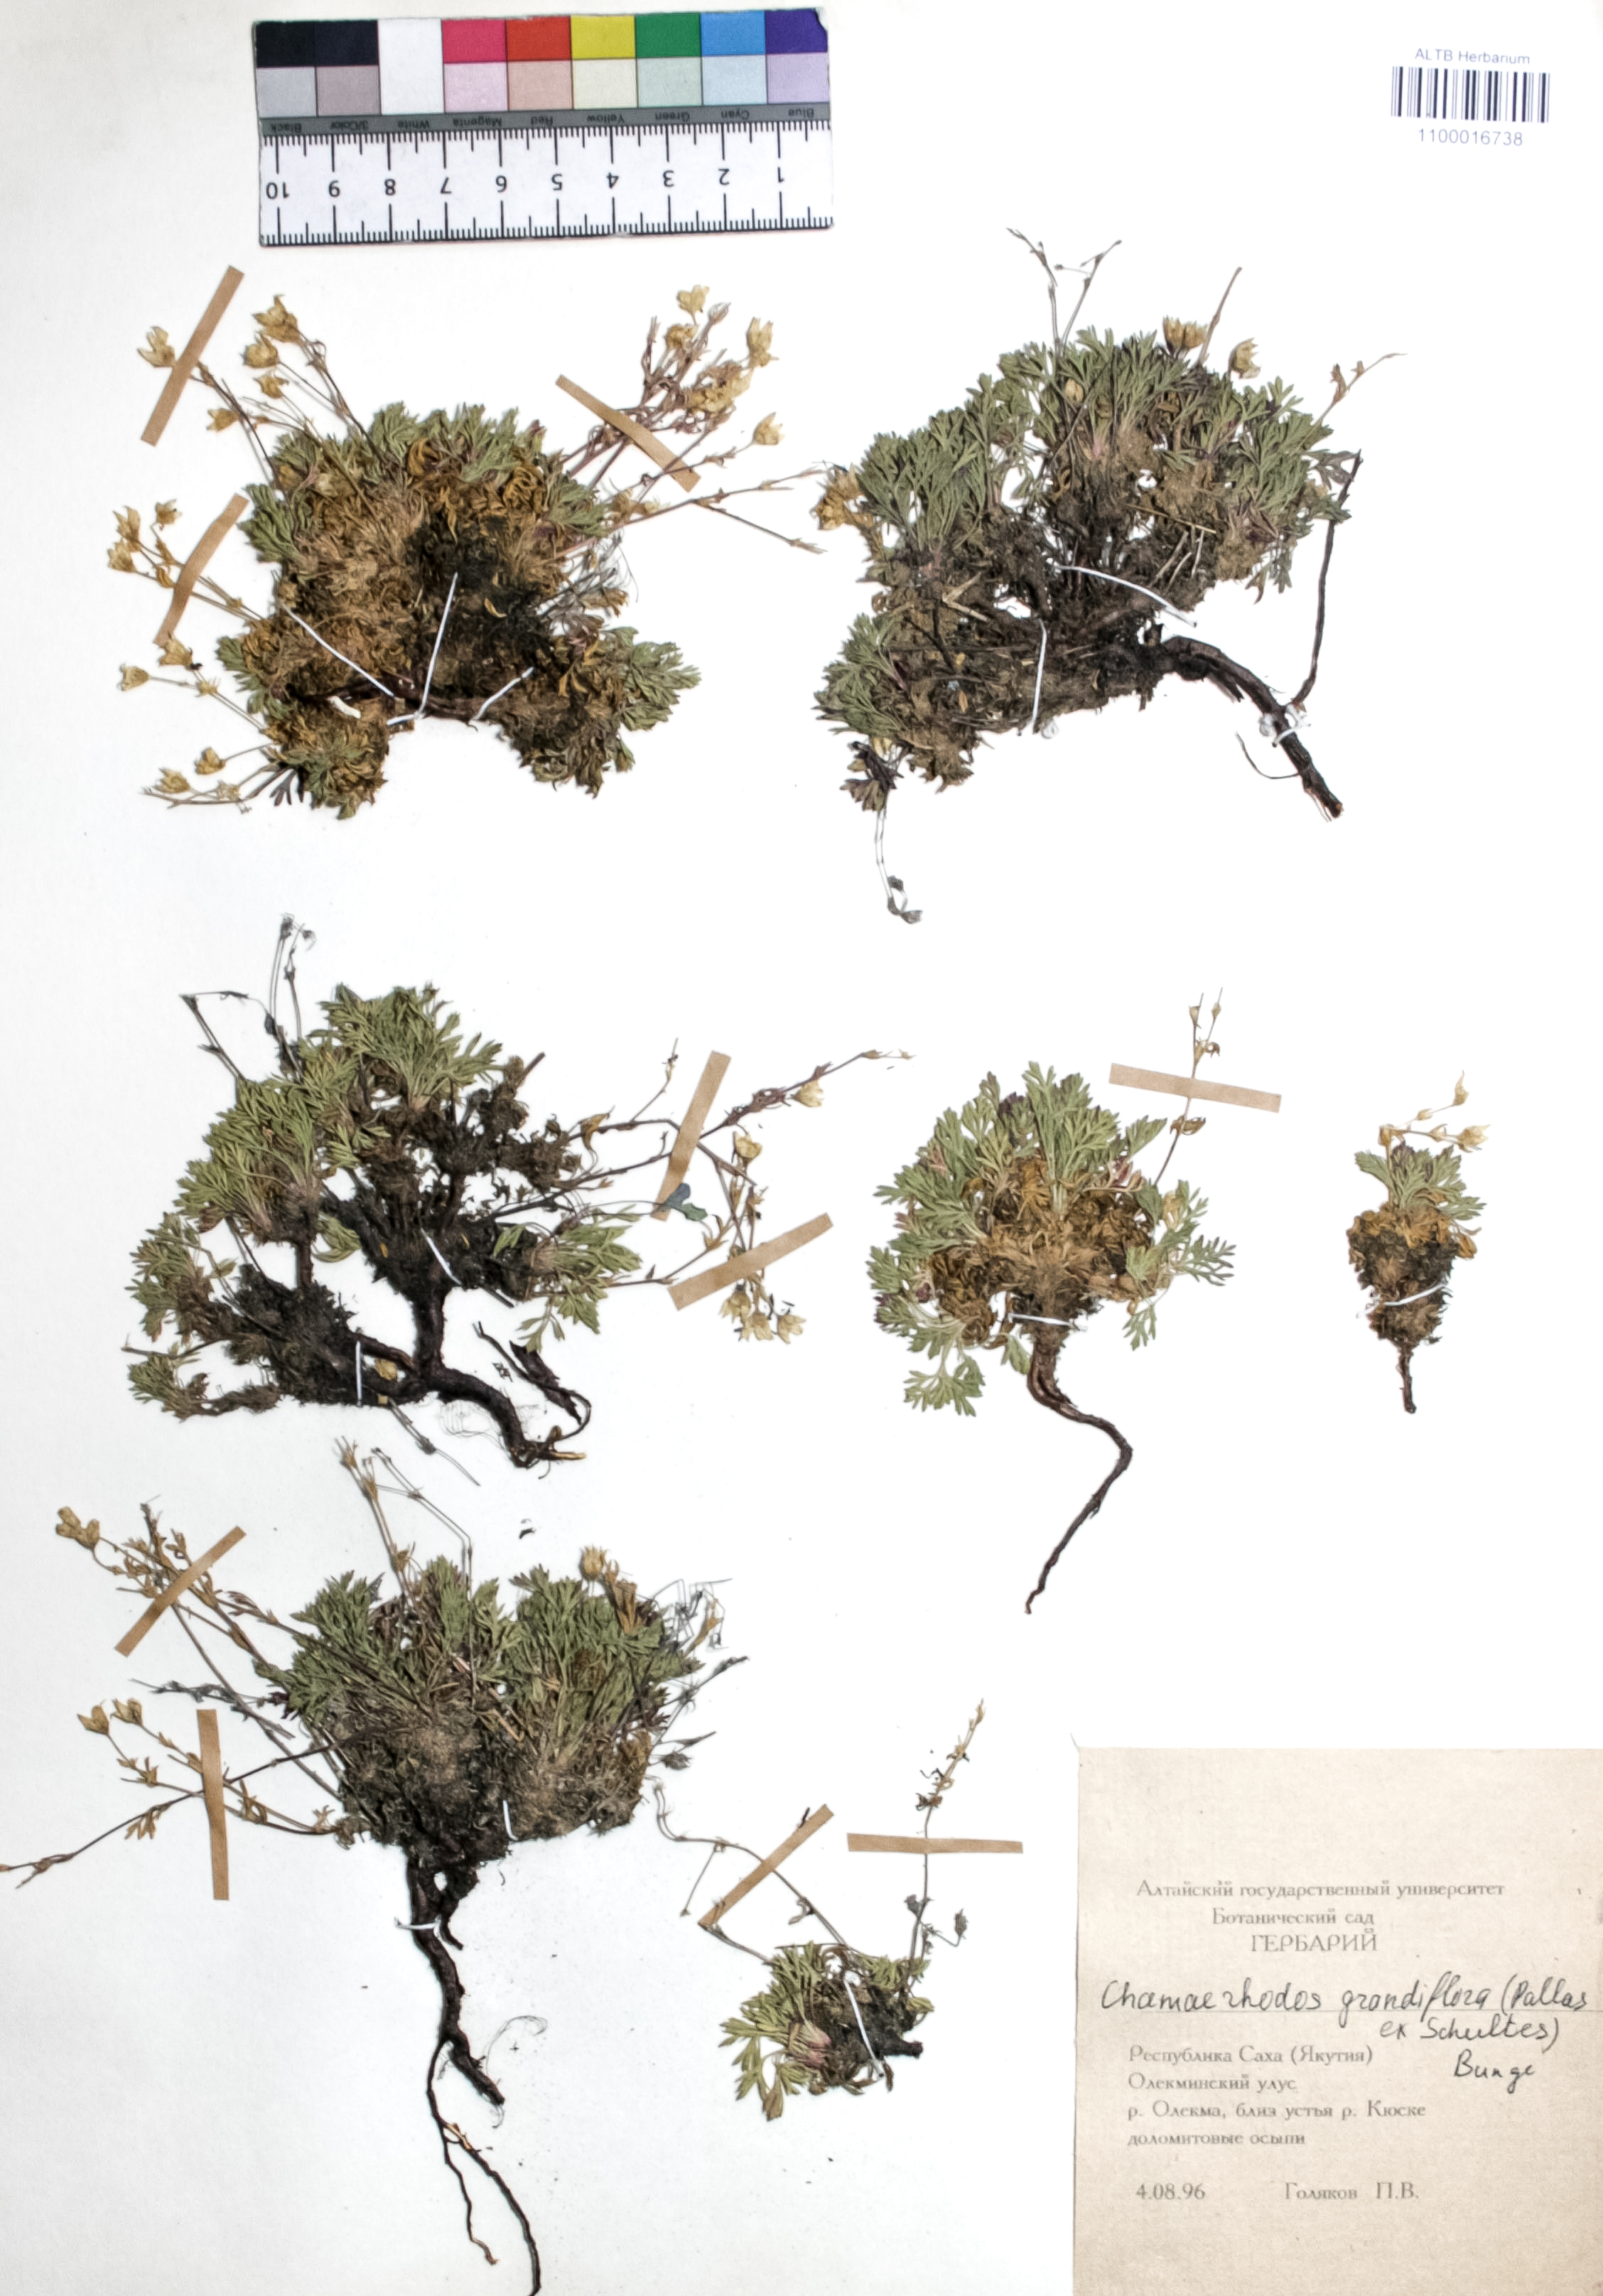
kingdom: Plantae
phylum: Tracheophyta
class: Magnoliopsida
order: Rosales
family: Rosaceae
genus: Chamaerhodos
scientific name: Chamaerhodos grandiflora
